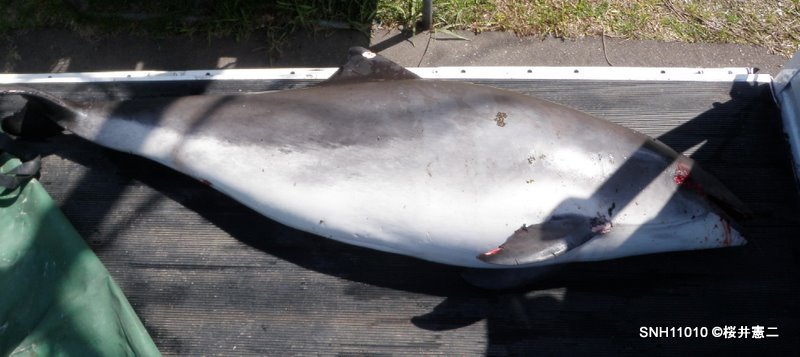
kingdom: Animalia
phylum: Chordata
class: Mammalia
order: Cetacea
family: Phocoenidae
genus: Phocoena
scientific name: Phocoena phocoena
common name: Harbour porpoise
